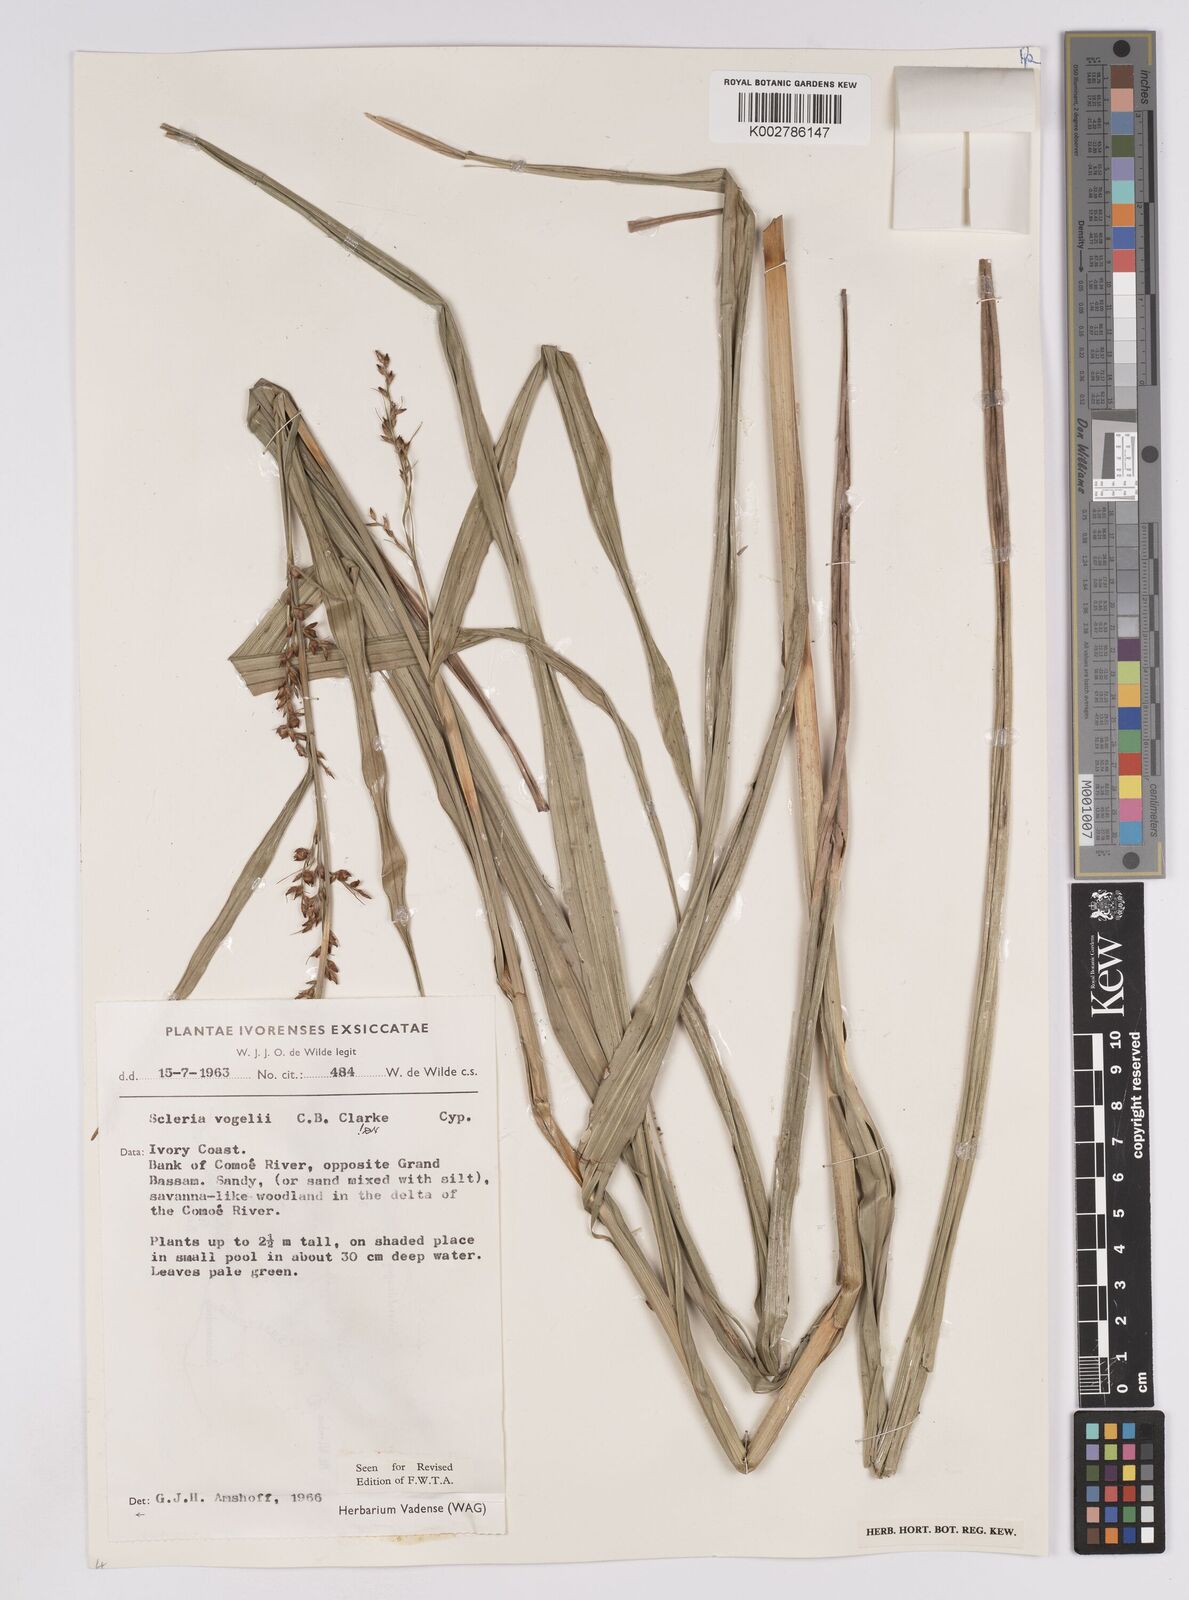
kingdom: Plantae
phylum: Tracheophyta
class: Liliopsida
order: Poales
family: Cyperaceae
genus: Scleria
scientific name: Scleria vogelii
